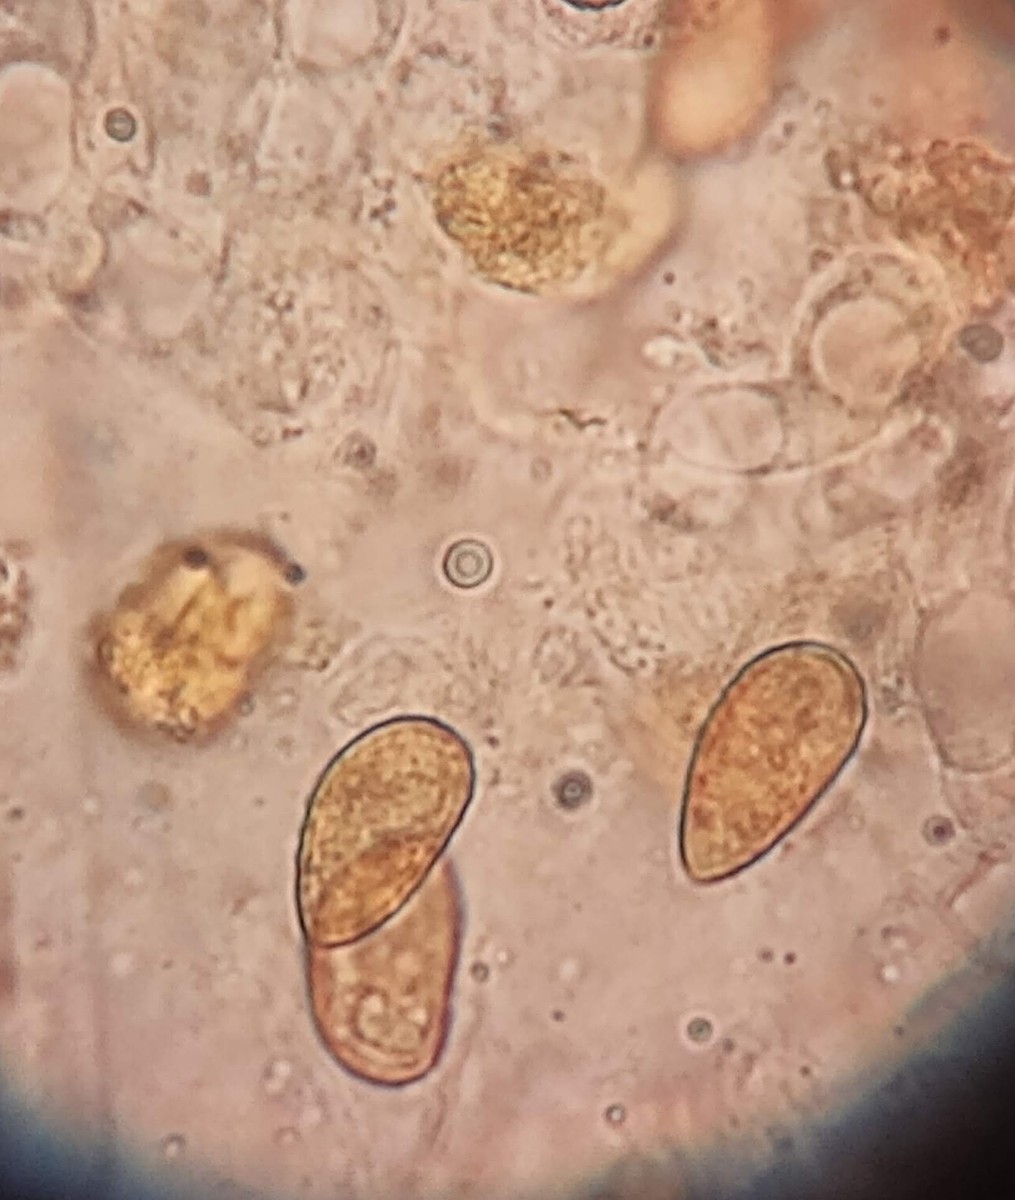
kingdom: Fungi
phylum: Basidiomycota
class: Agaricomycetes
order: Agaricales
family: Hymenogastraceae
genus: Galerina
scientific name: Galerina clavata
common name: kær-hjelmhat
